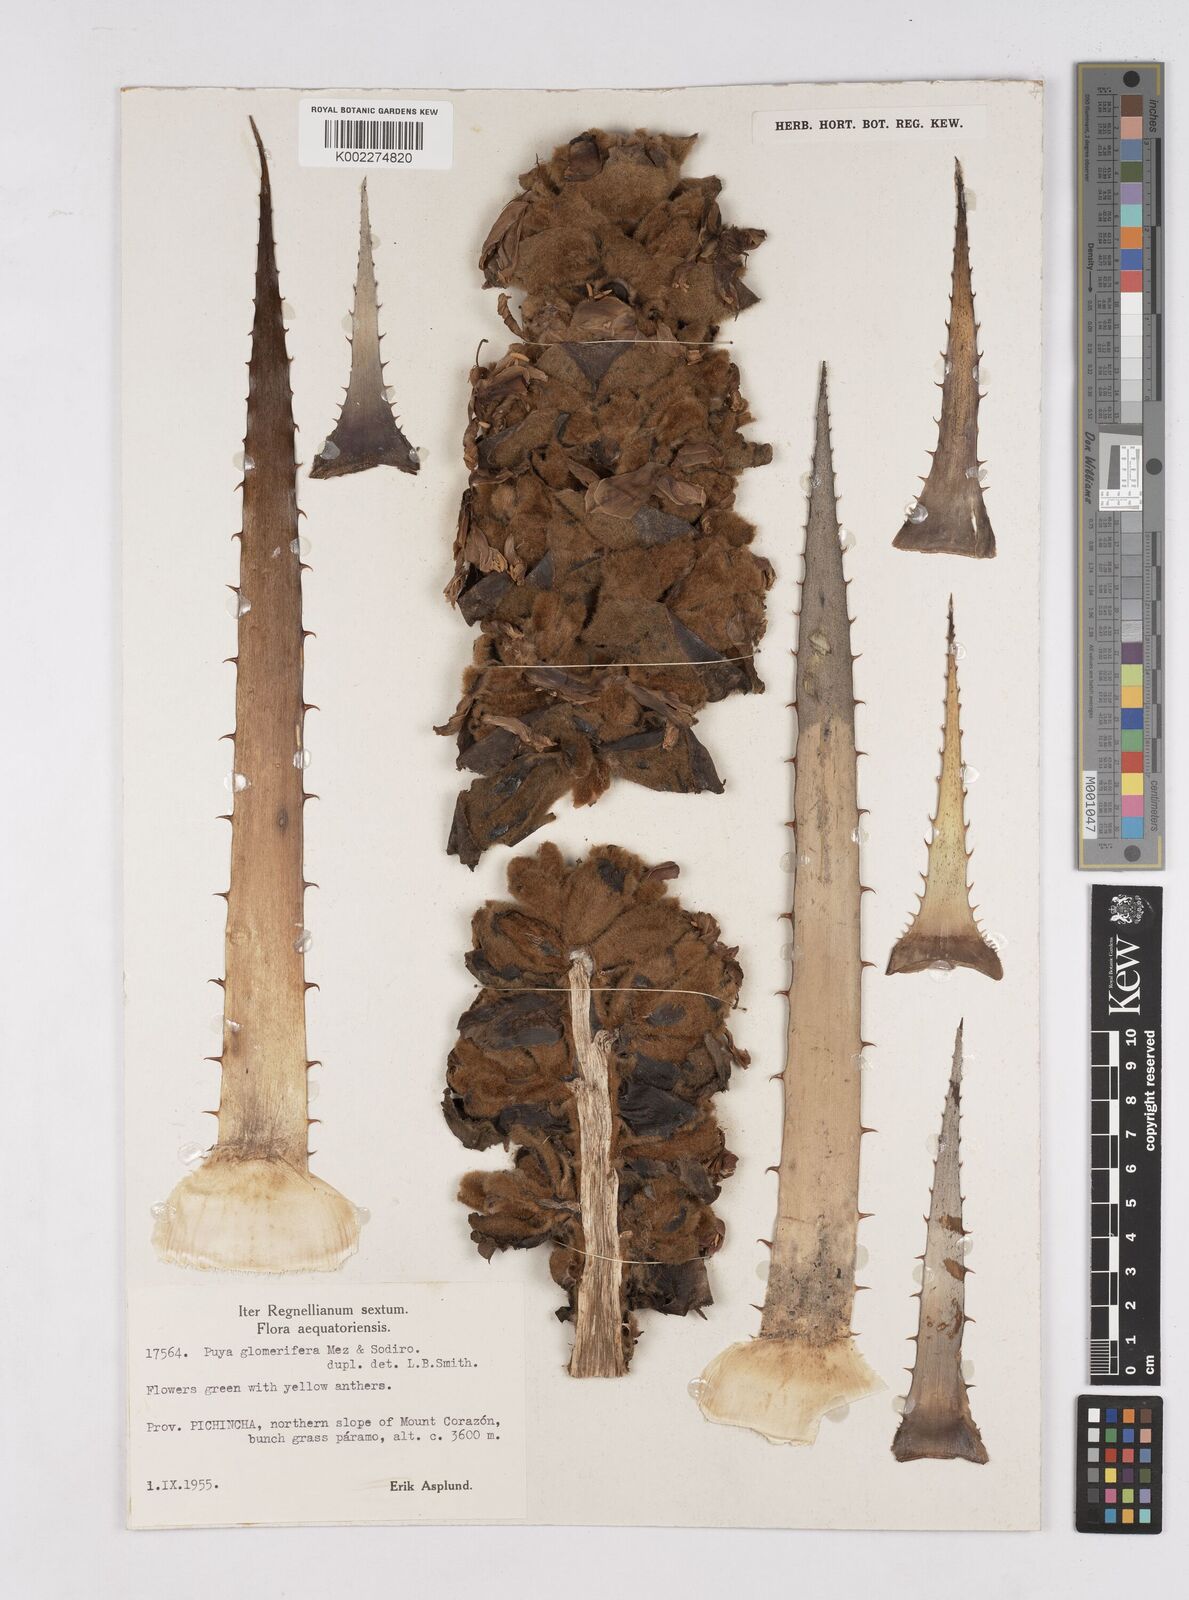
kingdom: Plantae
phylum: Tracheophyta
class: Liliopsida
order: Poales
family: Bromeliaceae
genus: Puya
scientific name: Puya glomerifera
